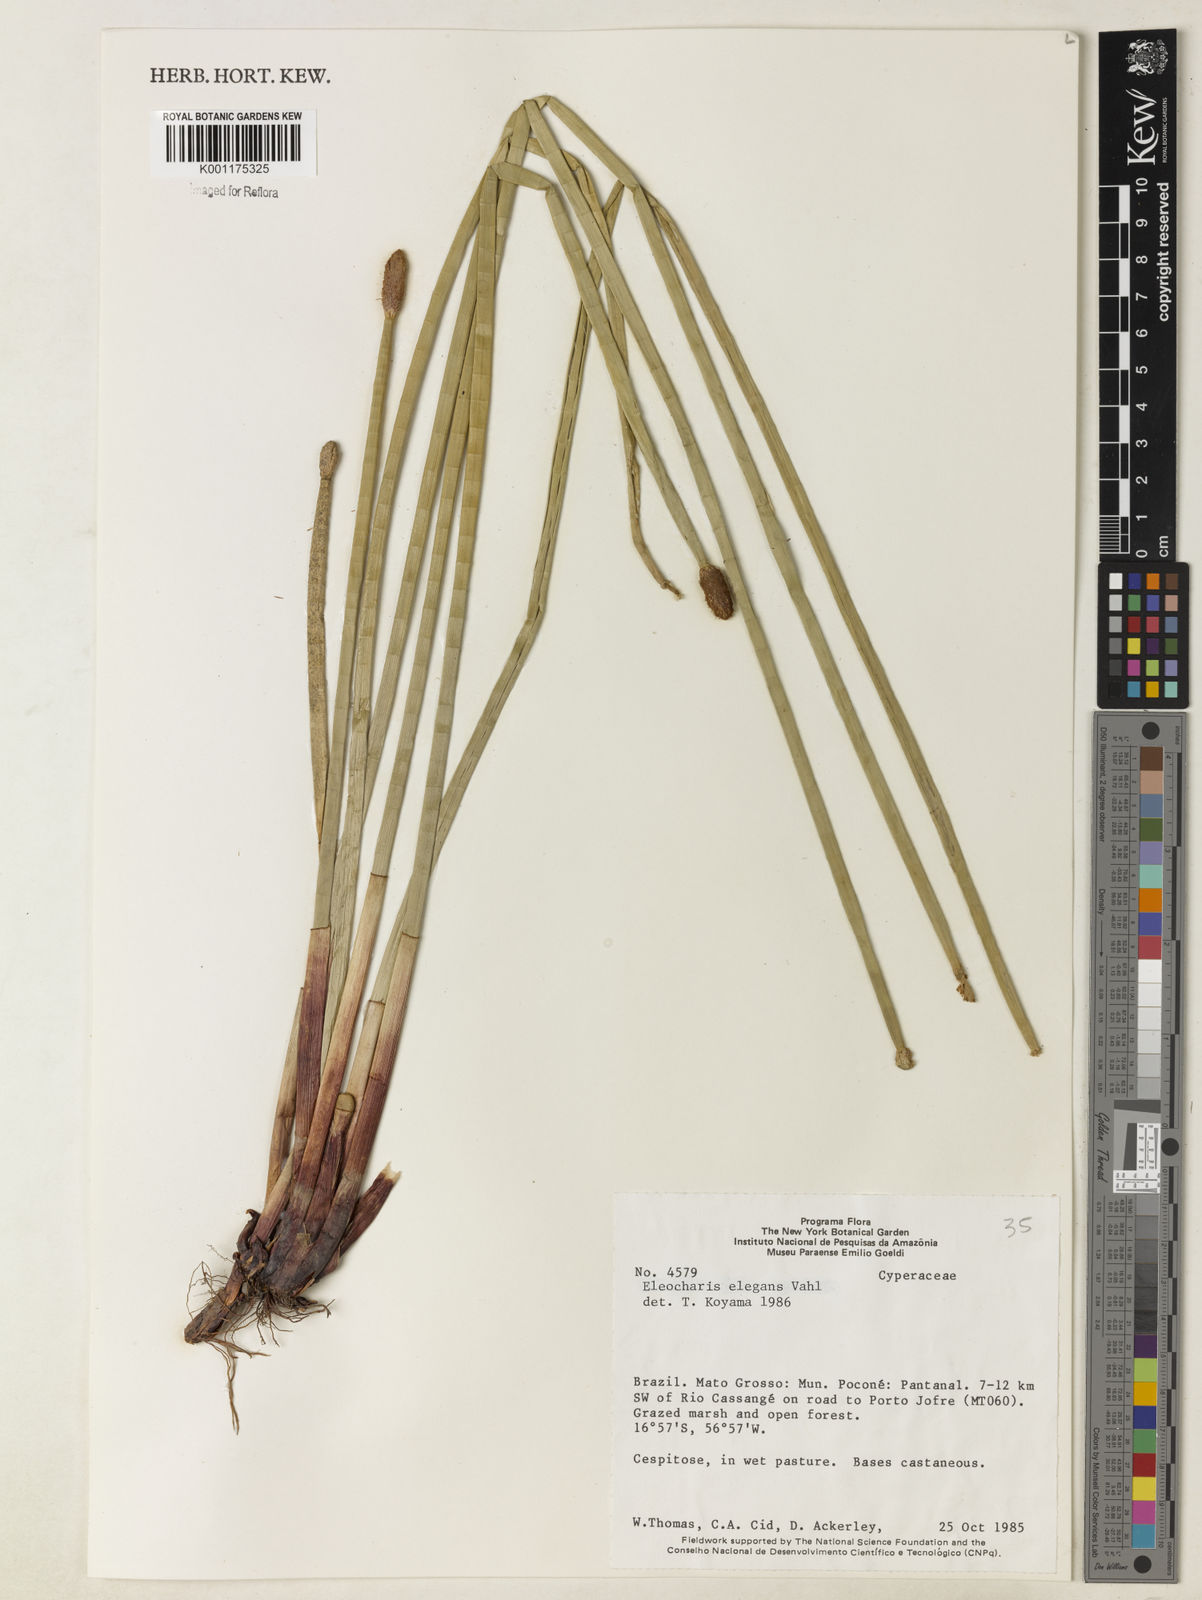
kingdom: Plantae
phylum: Tracheophyta
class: Liliopsida
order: Poales
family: Cyperaceae
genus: Eleocharis
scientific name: Eleocharis elegans
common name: Elegant spike-rush
